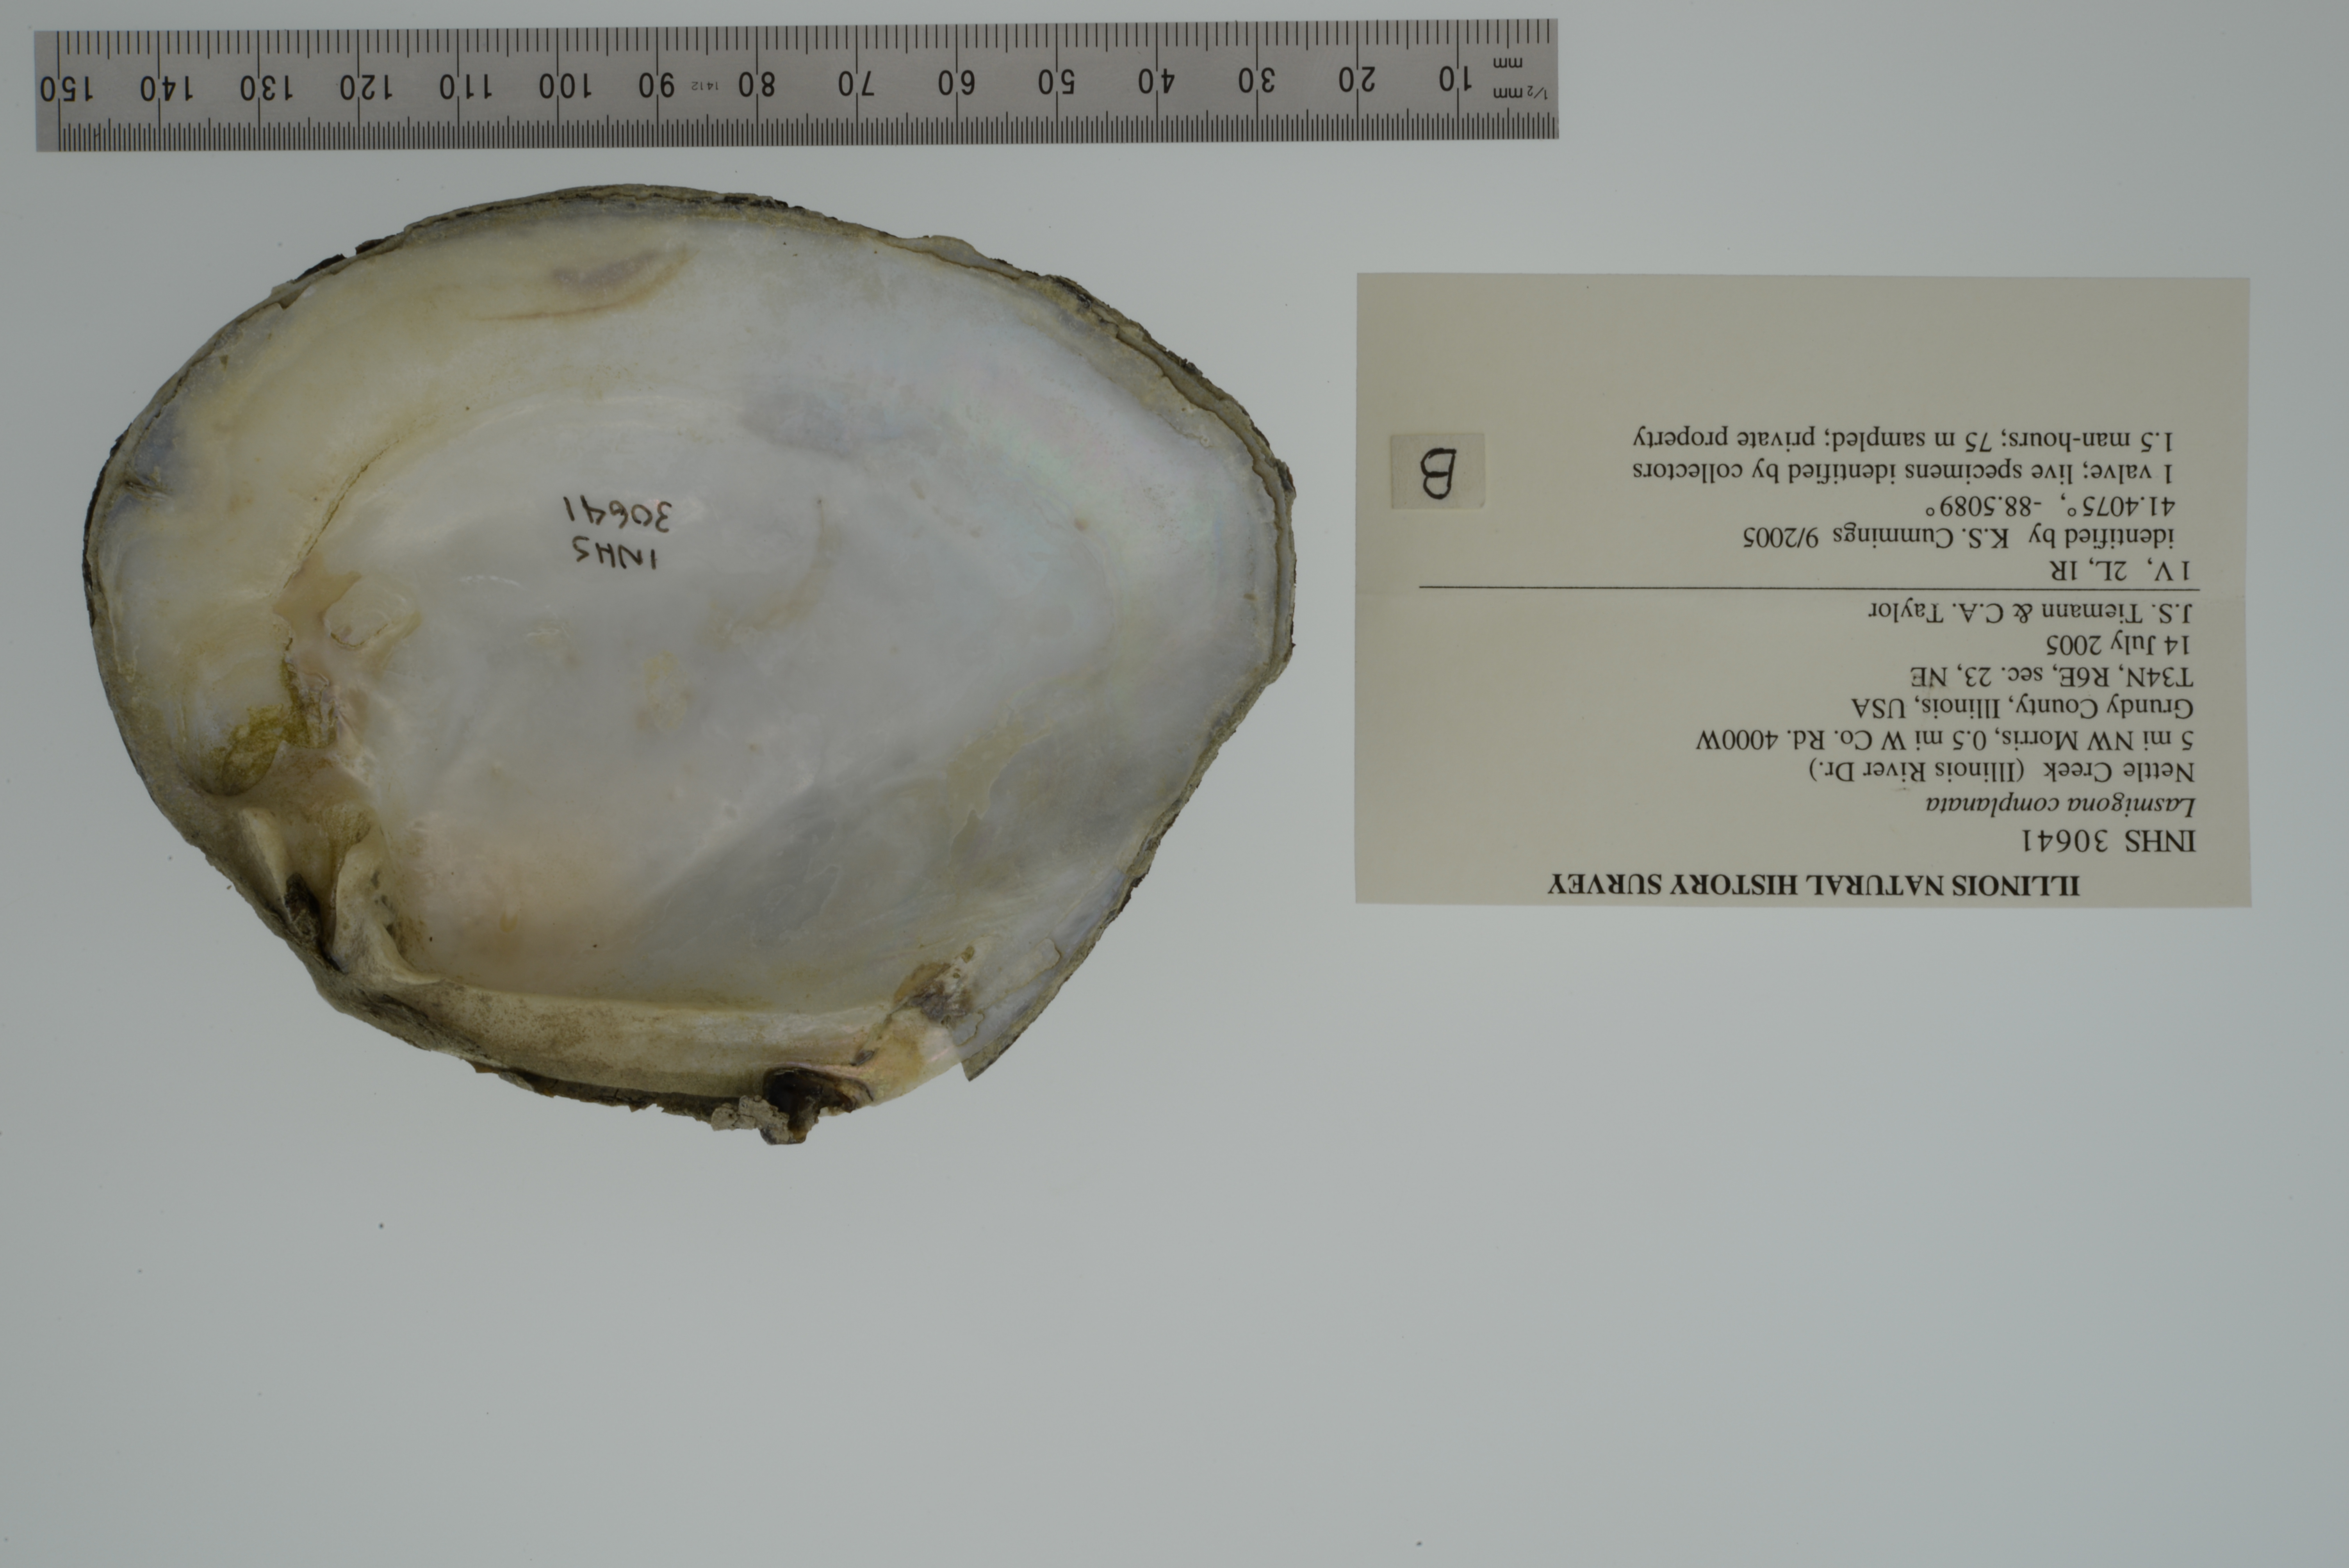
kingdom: Animalia
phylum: Mollusca
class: Bivalvia
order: Unionida
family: Unionidae
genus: Lasmigona
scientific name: Lasmigona complanata
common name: White heelsplitter
